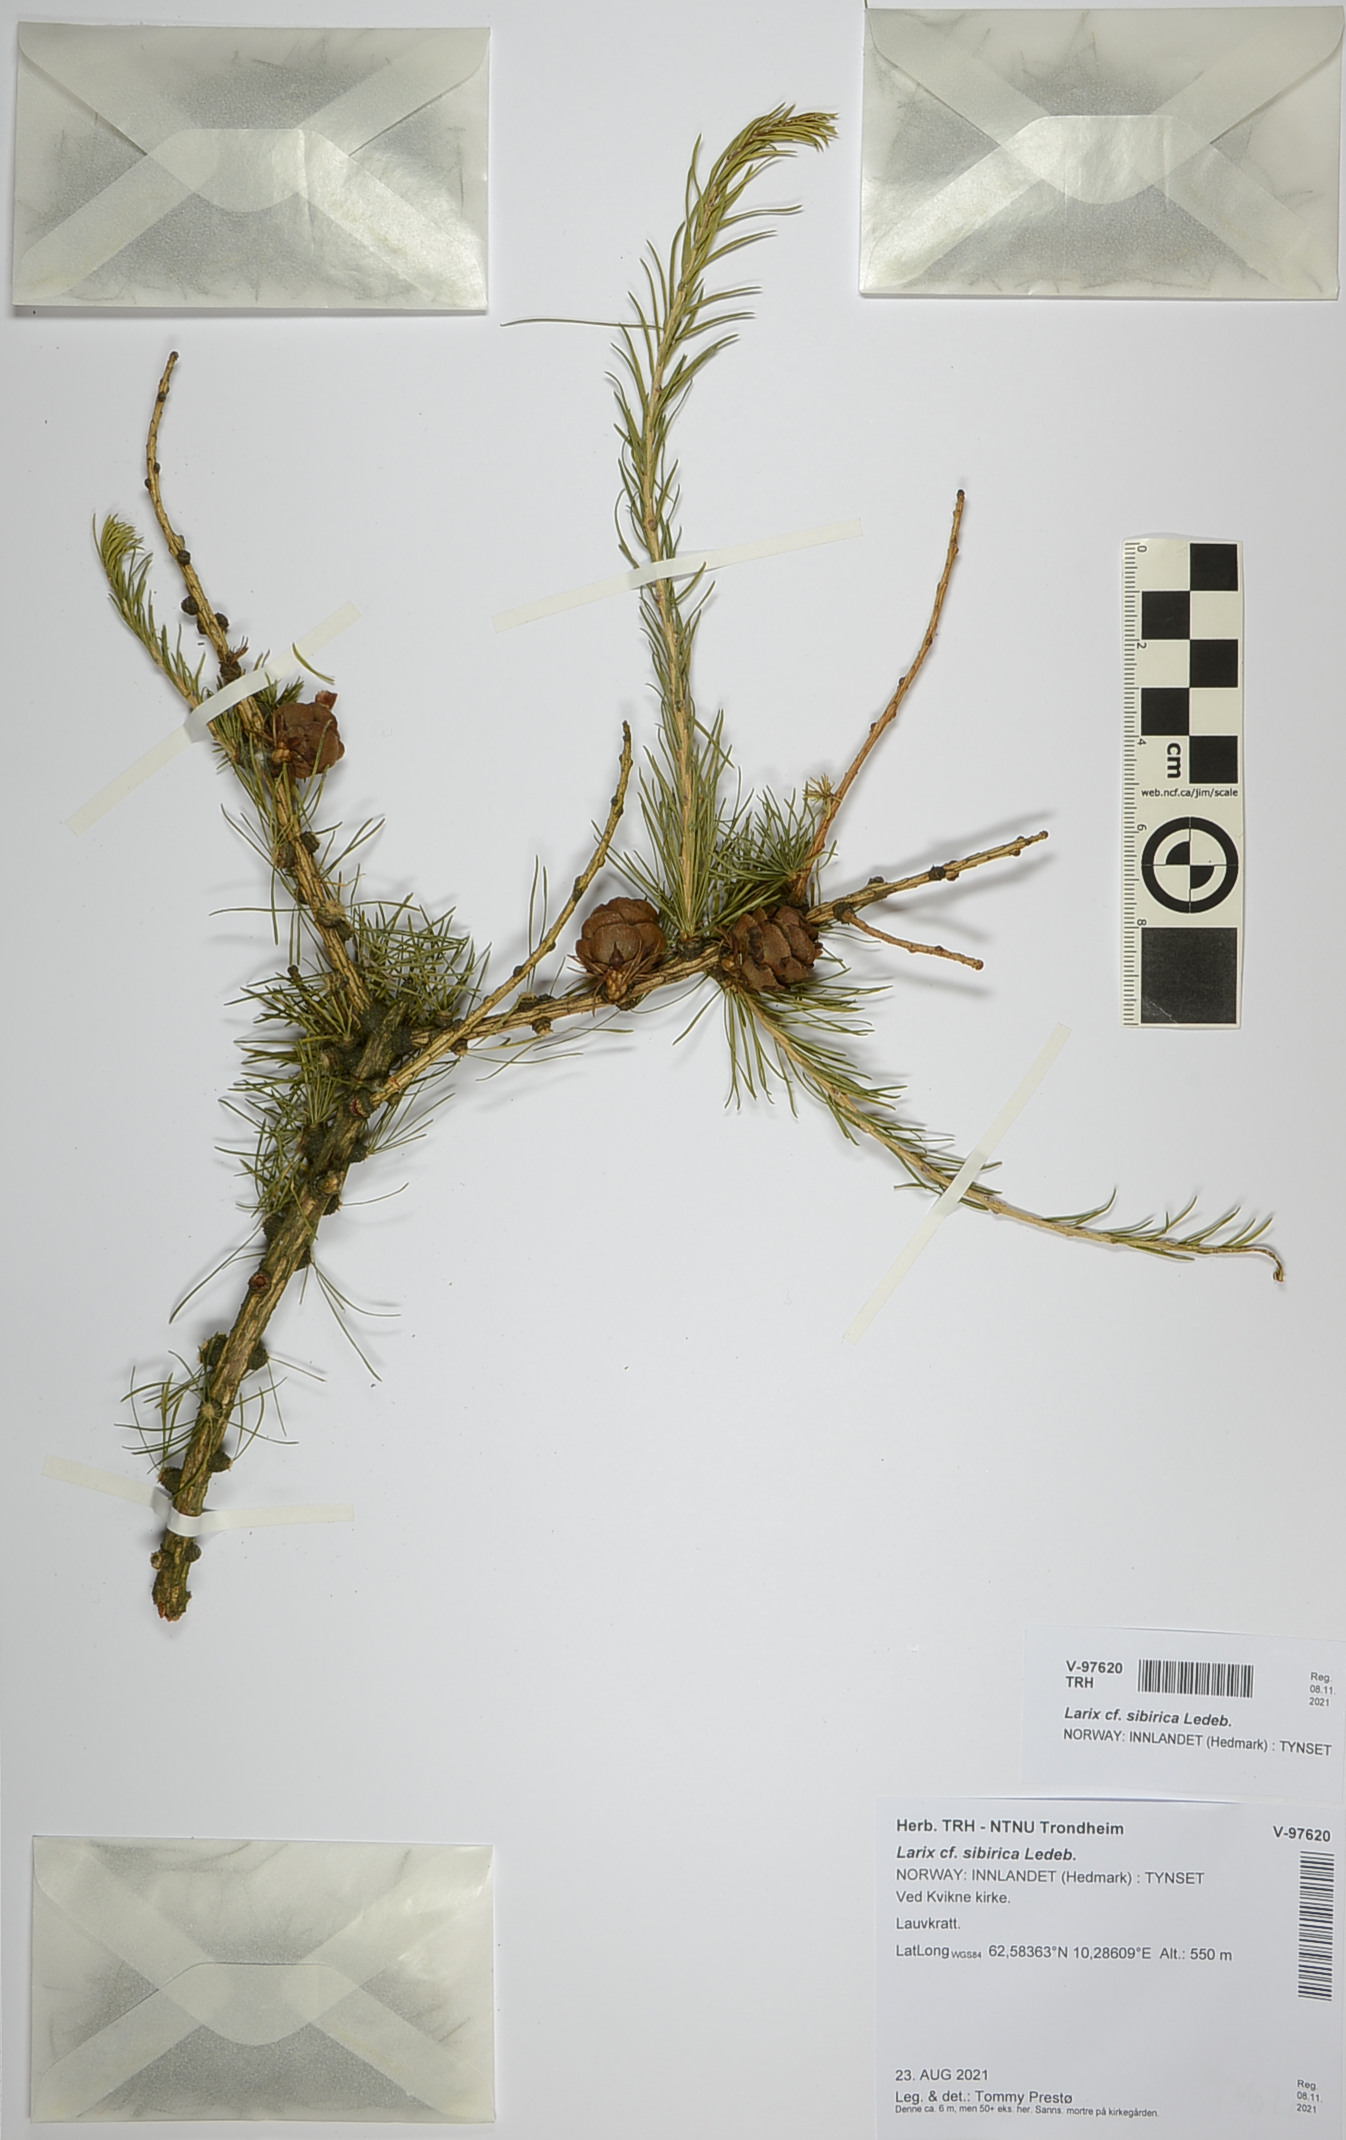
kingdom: Plantae
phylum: Tracheophyta
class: Pinopsida
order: Pinales
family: Pinaceae
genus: Larix
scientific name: Larix sibirica
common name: Siberian larch
